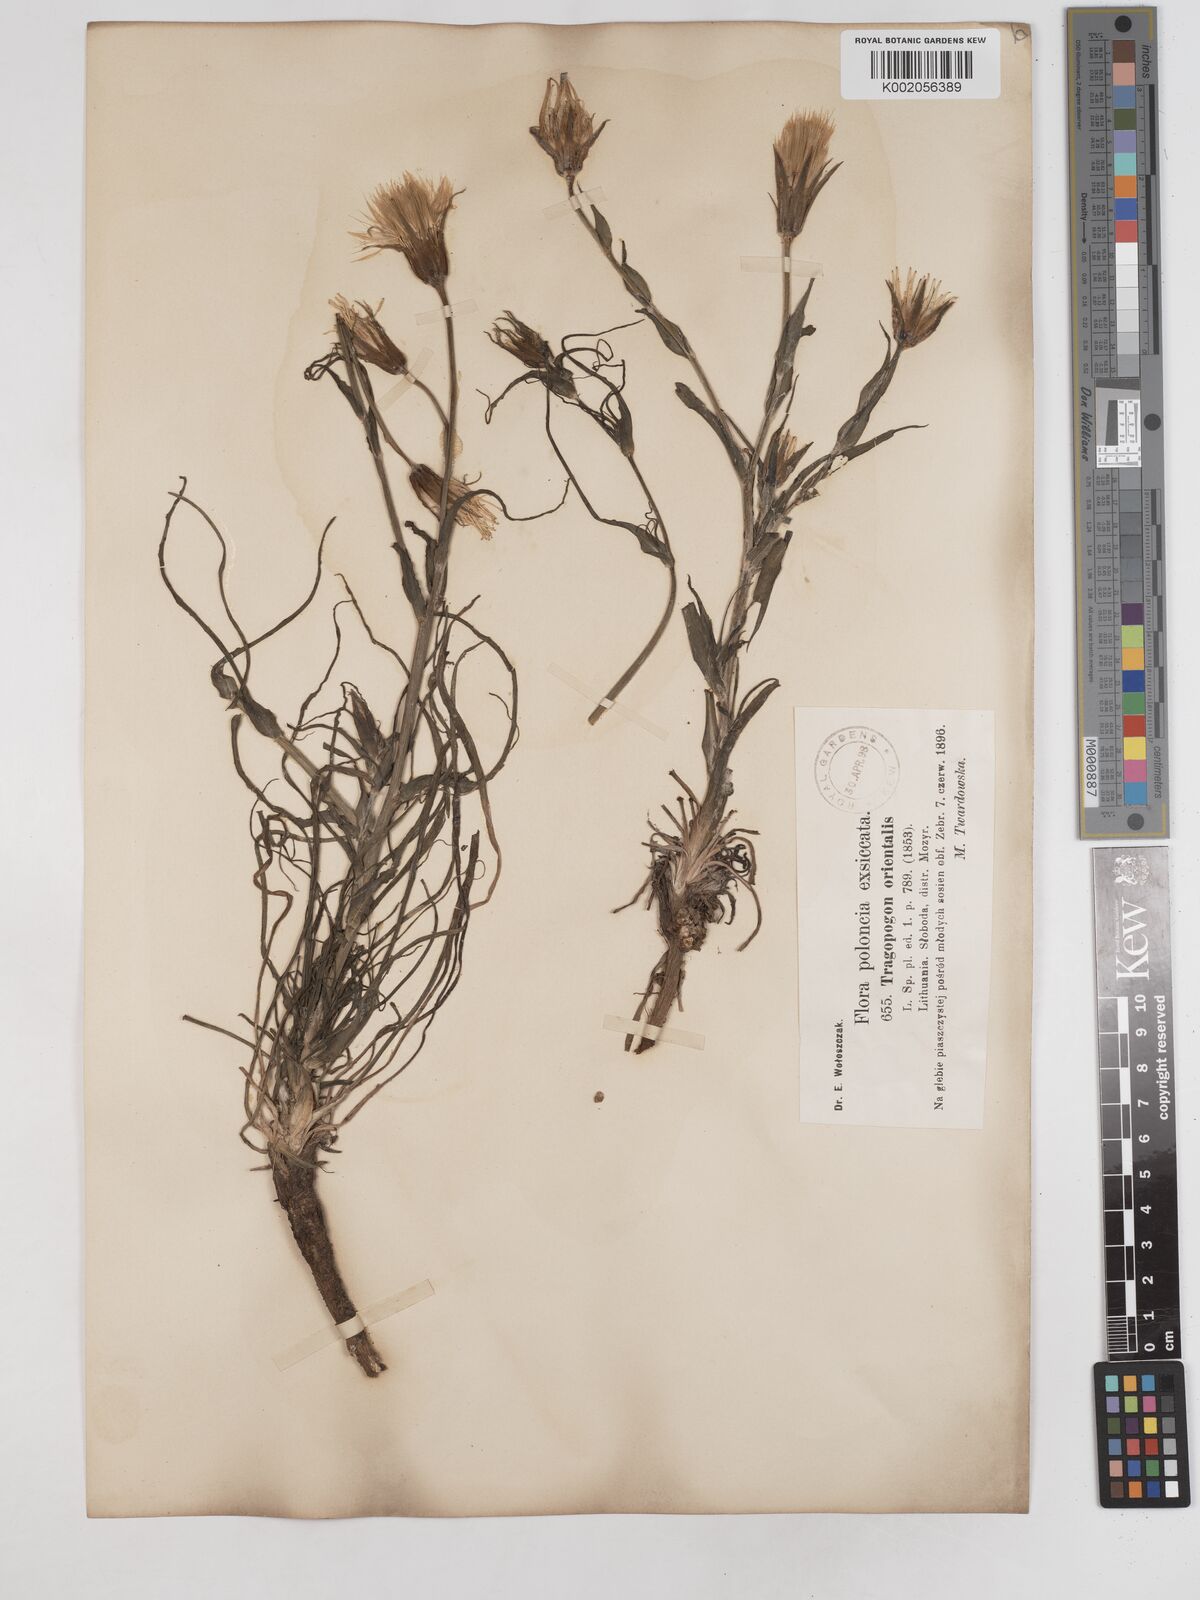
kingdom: Plantae
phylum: Tracheophyta
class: Magnoliopsida
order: Asterales
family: Asteraceae
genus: Tragopogon
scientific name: Tragopogon floccosus
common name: Woolly goatsbeard
